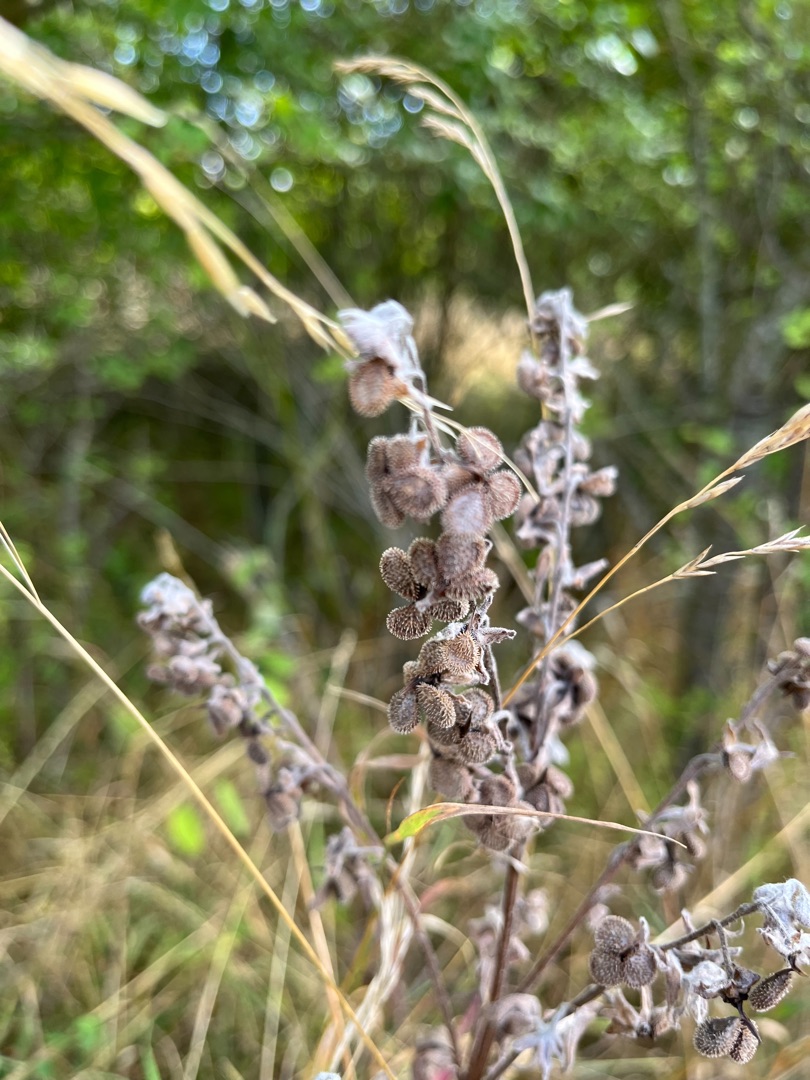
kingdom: Plantae
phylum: Tracheophyta
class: Magnoliopsida
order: Boraginales
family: Boraginaceae
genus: Cynoglossum
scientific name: Cynoglossum officinale
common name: Hundetunge
